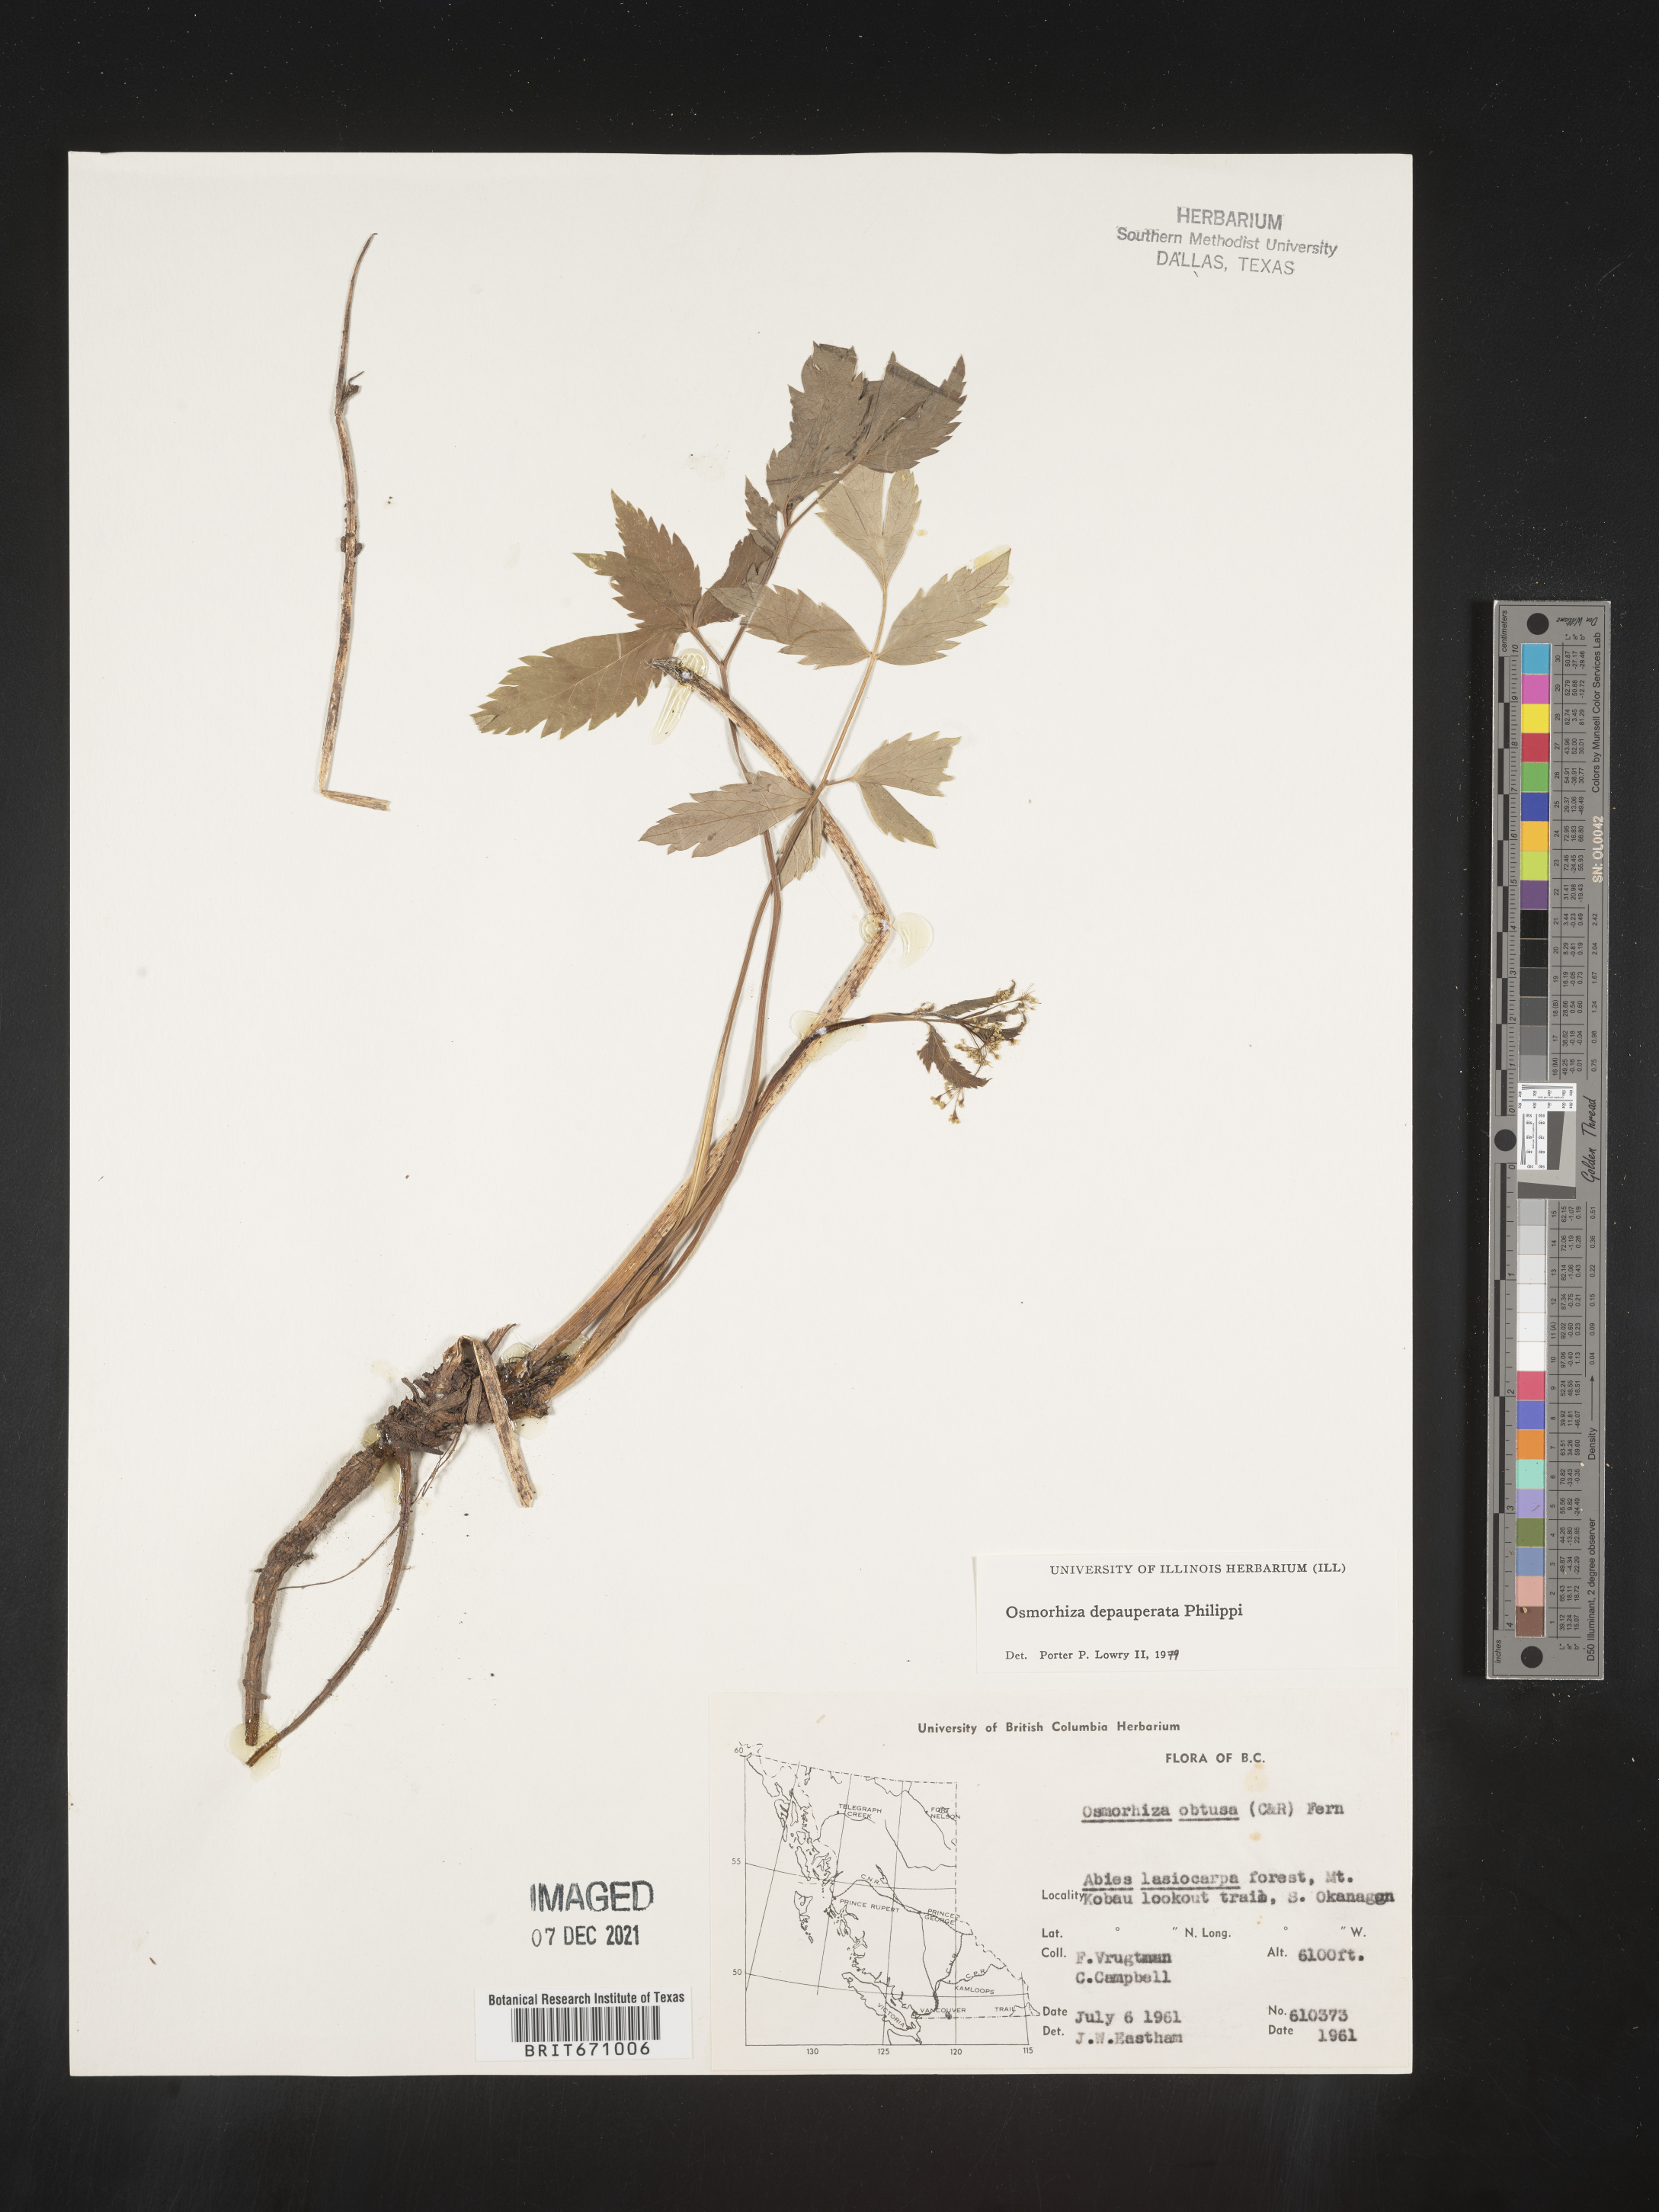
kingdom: Plantae
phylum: Tracheophyta
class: Magnoliopsida
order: Apiales
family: Apiaceae
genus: Osmorhiza
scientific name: Osmorhiza depauperata
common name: Blunt sweet cicely
